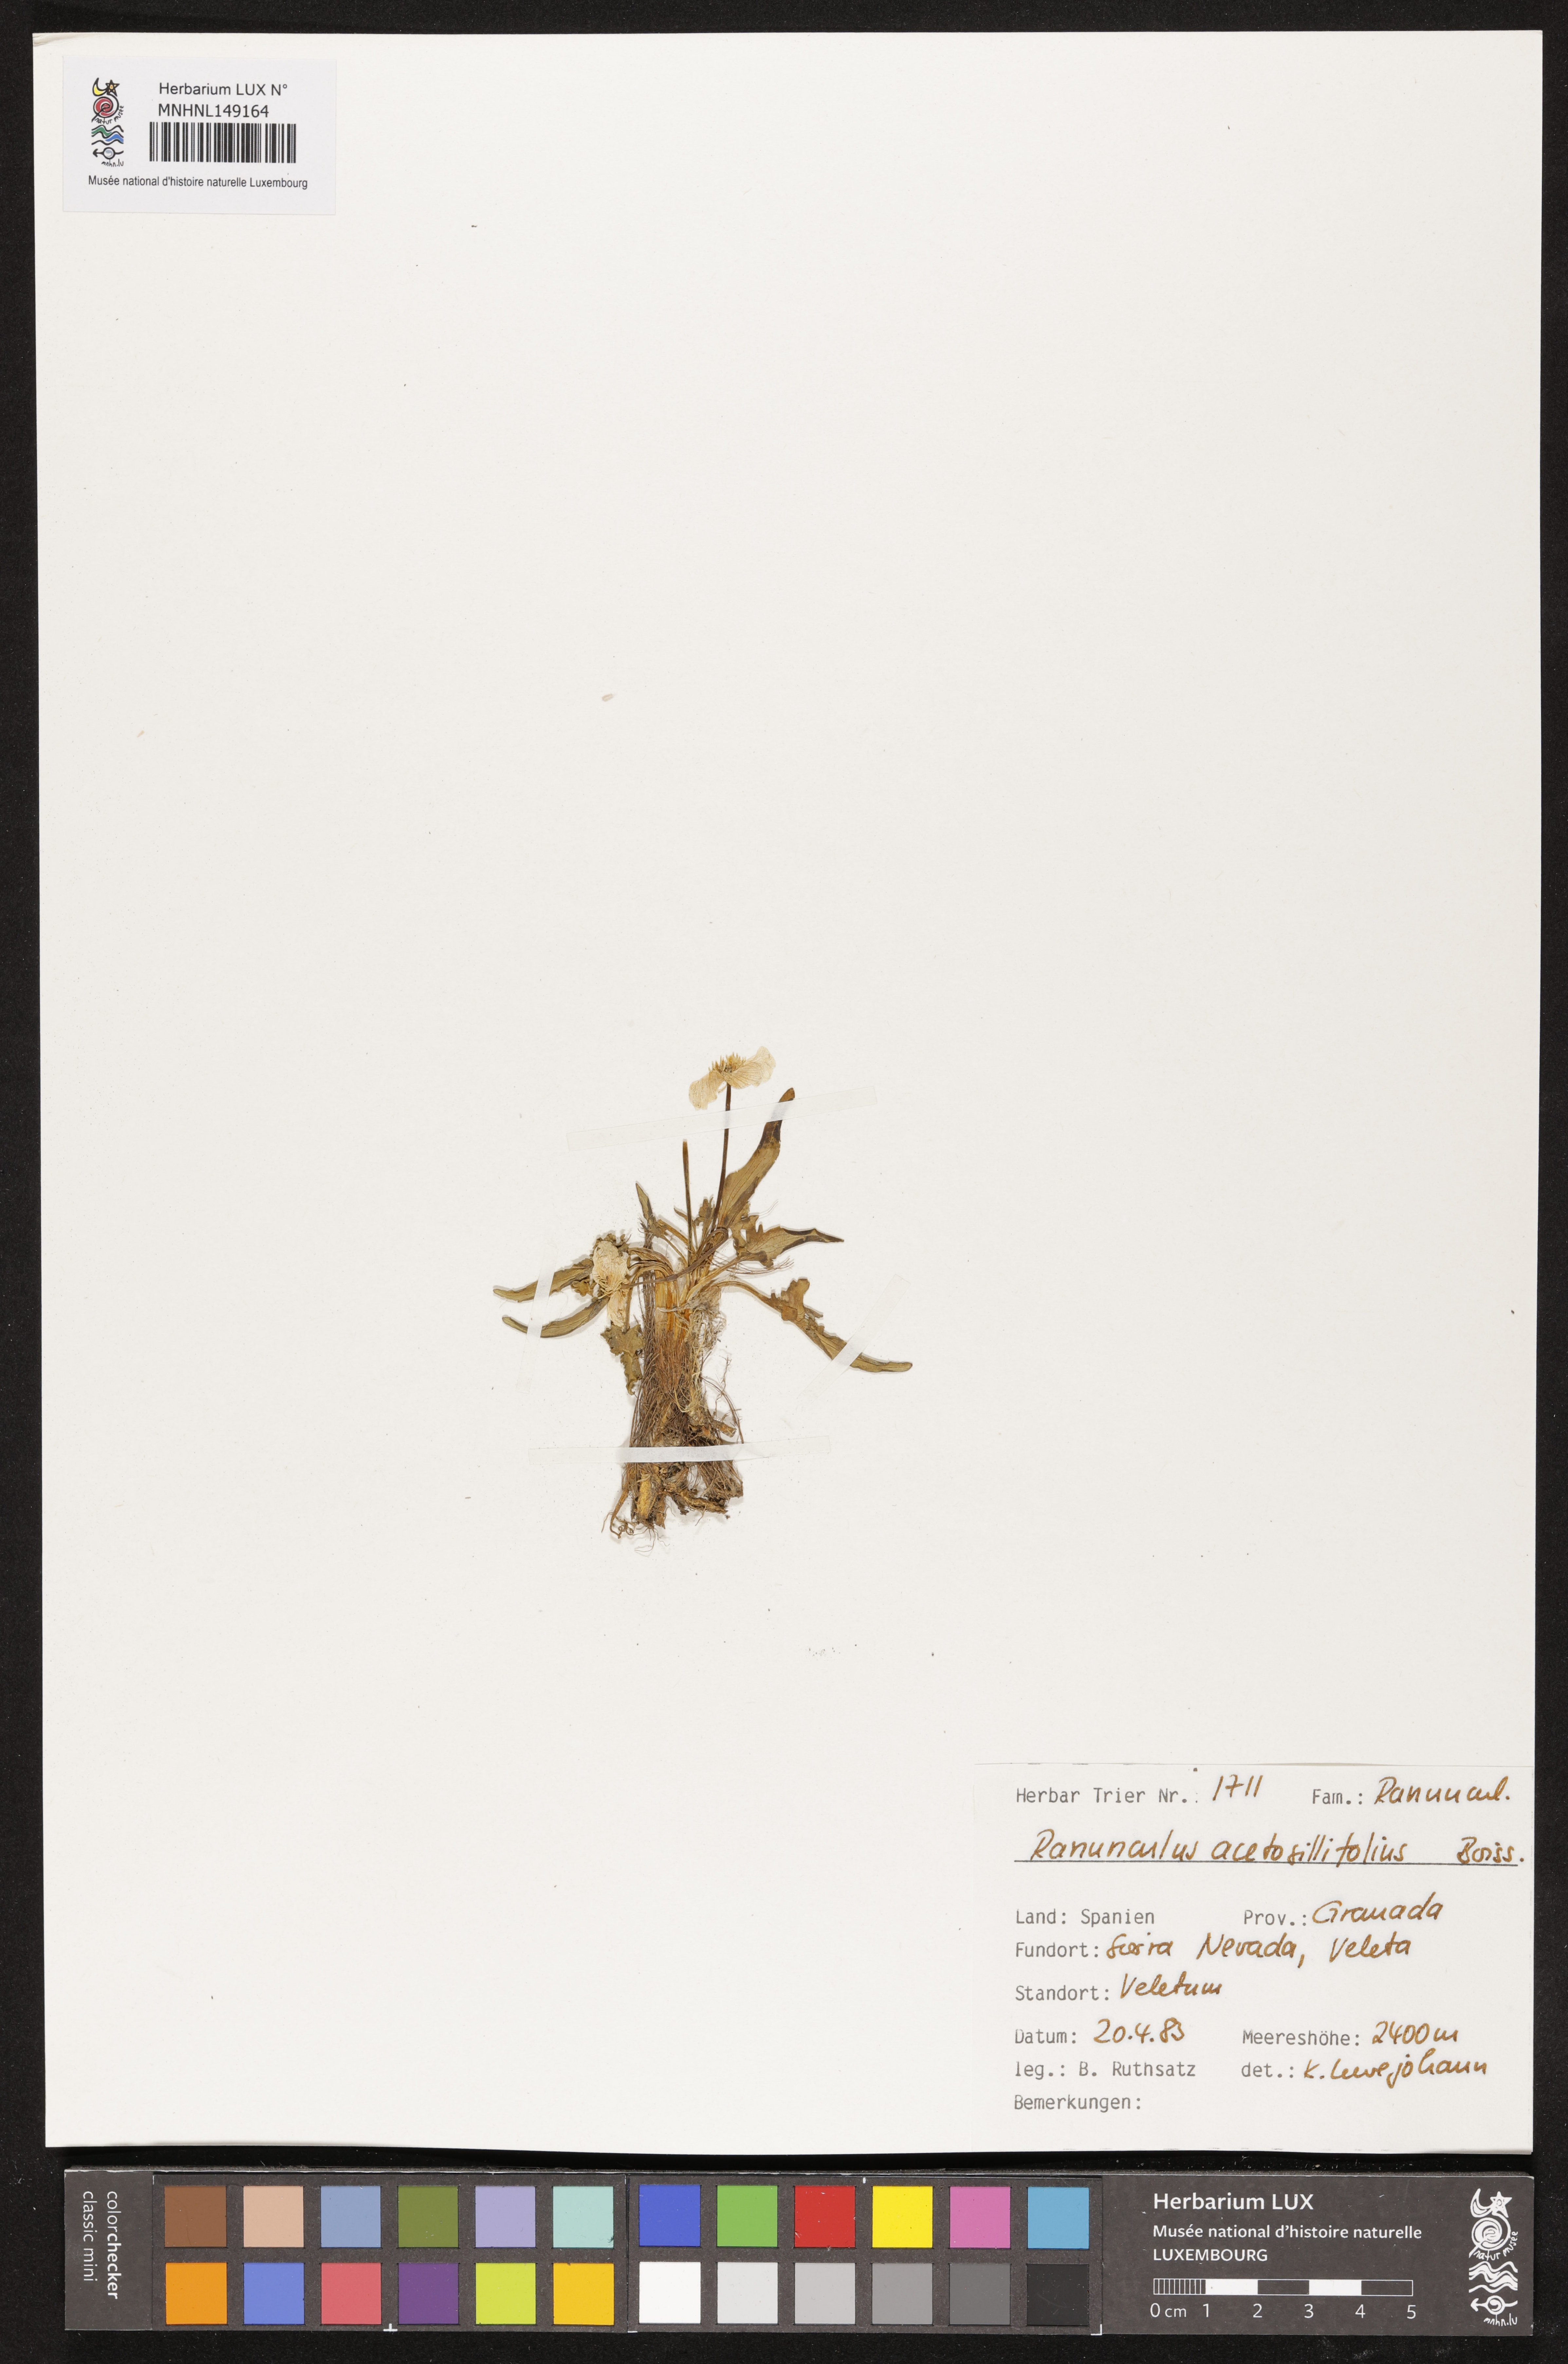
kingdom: Plantae
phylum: Tracheophyta
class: Magnoliopsida
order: Ranunculales
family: Ranunculaceae
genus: Ranunculus
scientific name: Ranunculus acetosellifolius
